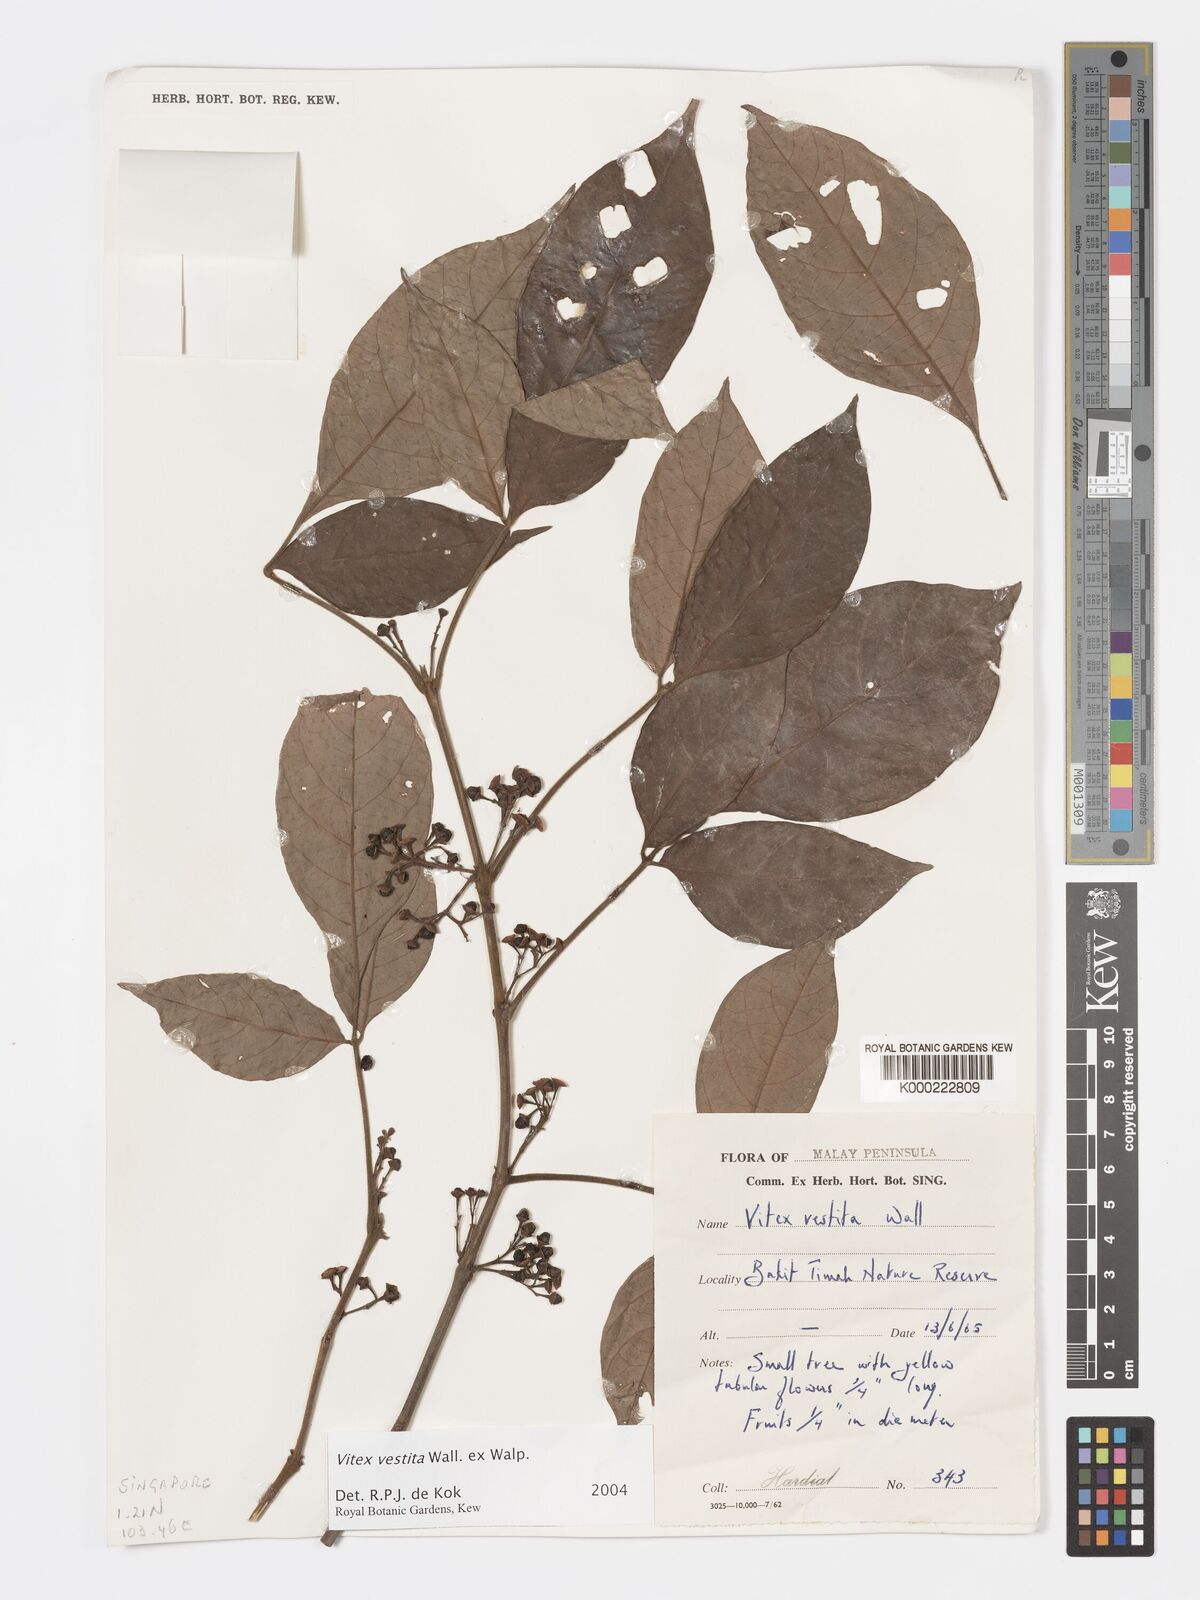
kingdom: Plantae
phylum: Tracheophyta
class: Magnoliopsida
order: Lamiales
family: Lamiaceae
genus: Vitex
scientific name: Vitex vestita
